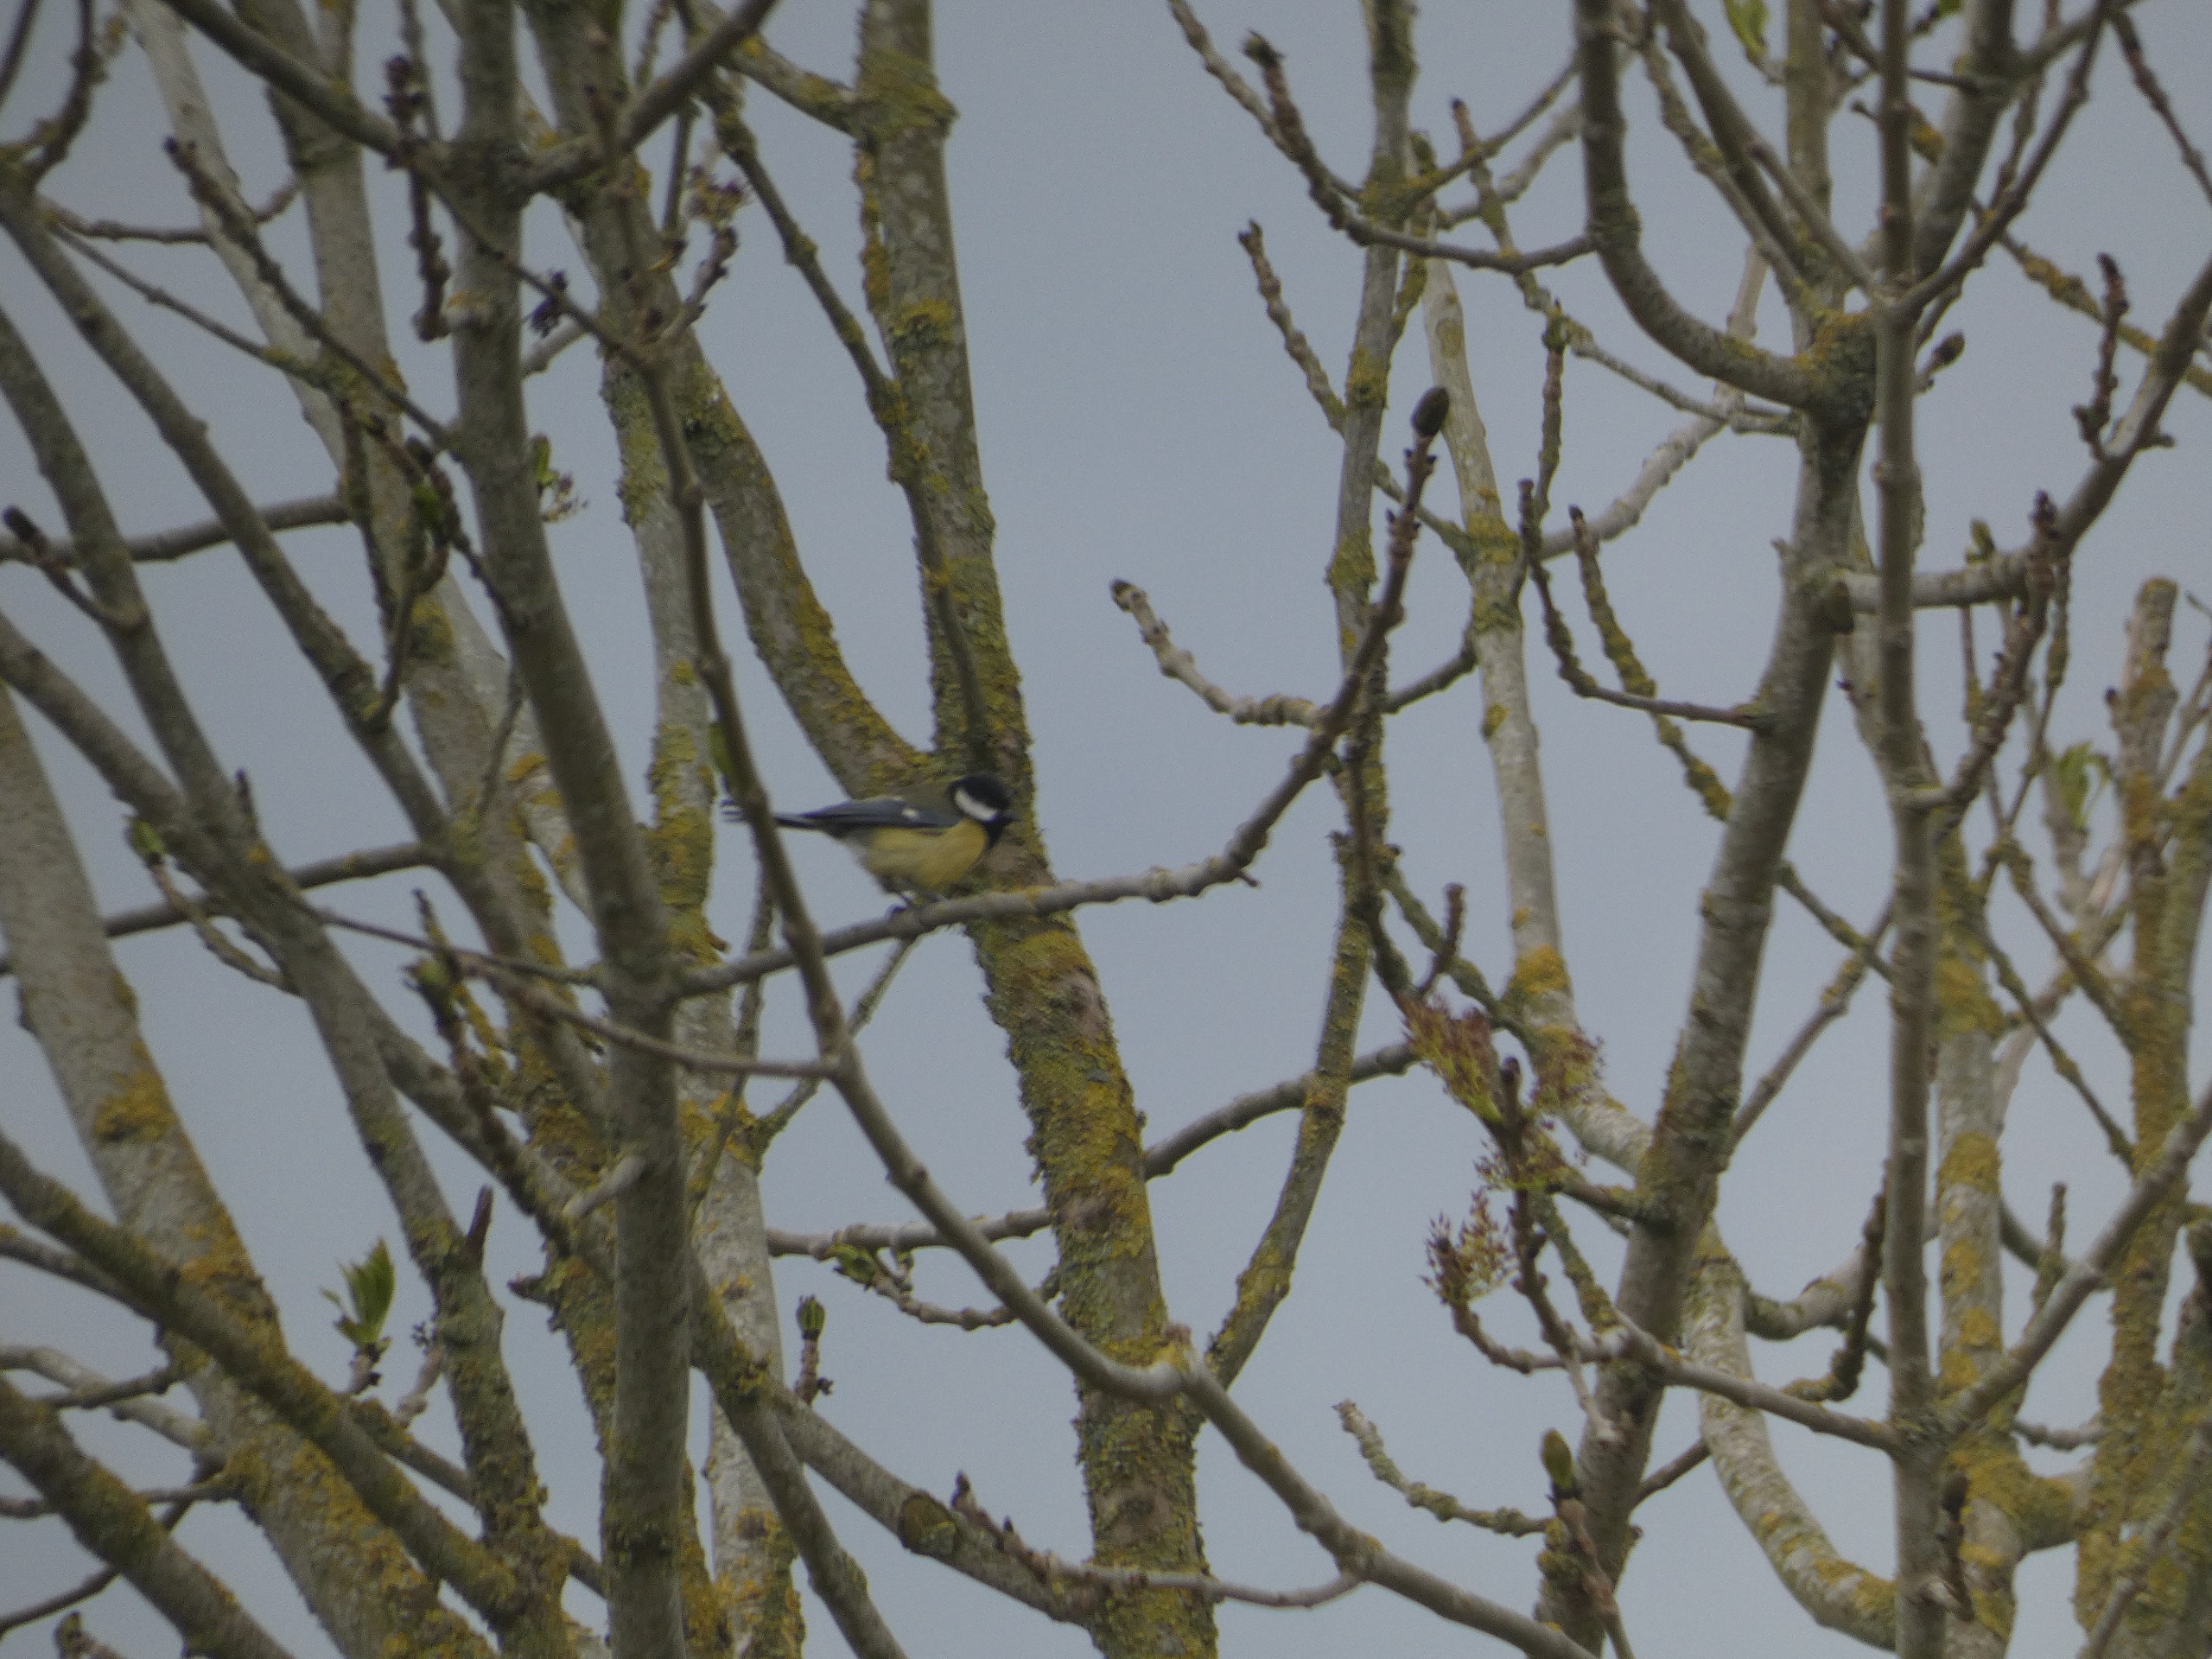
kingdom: Animalia
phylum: Chordata
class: Aves
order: Passeriformes
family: Paridae
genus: Parus
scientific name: Parus major
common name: Musvit
